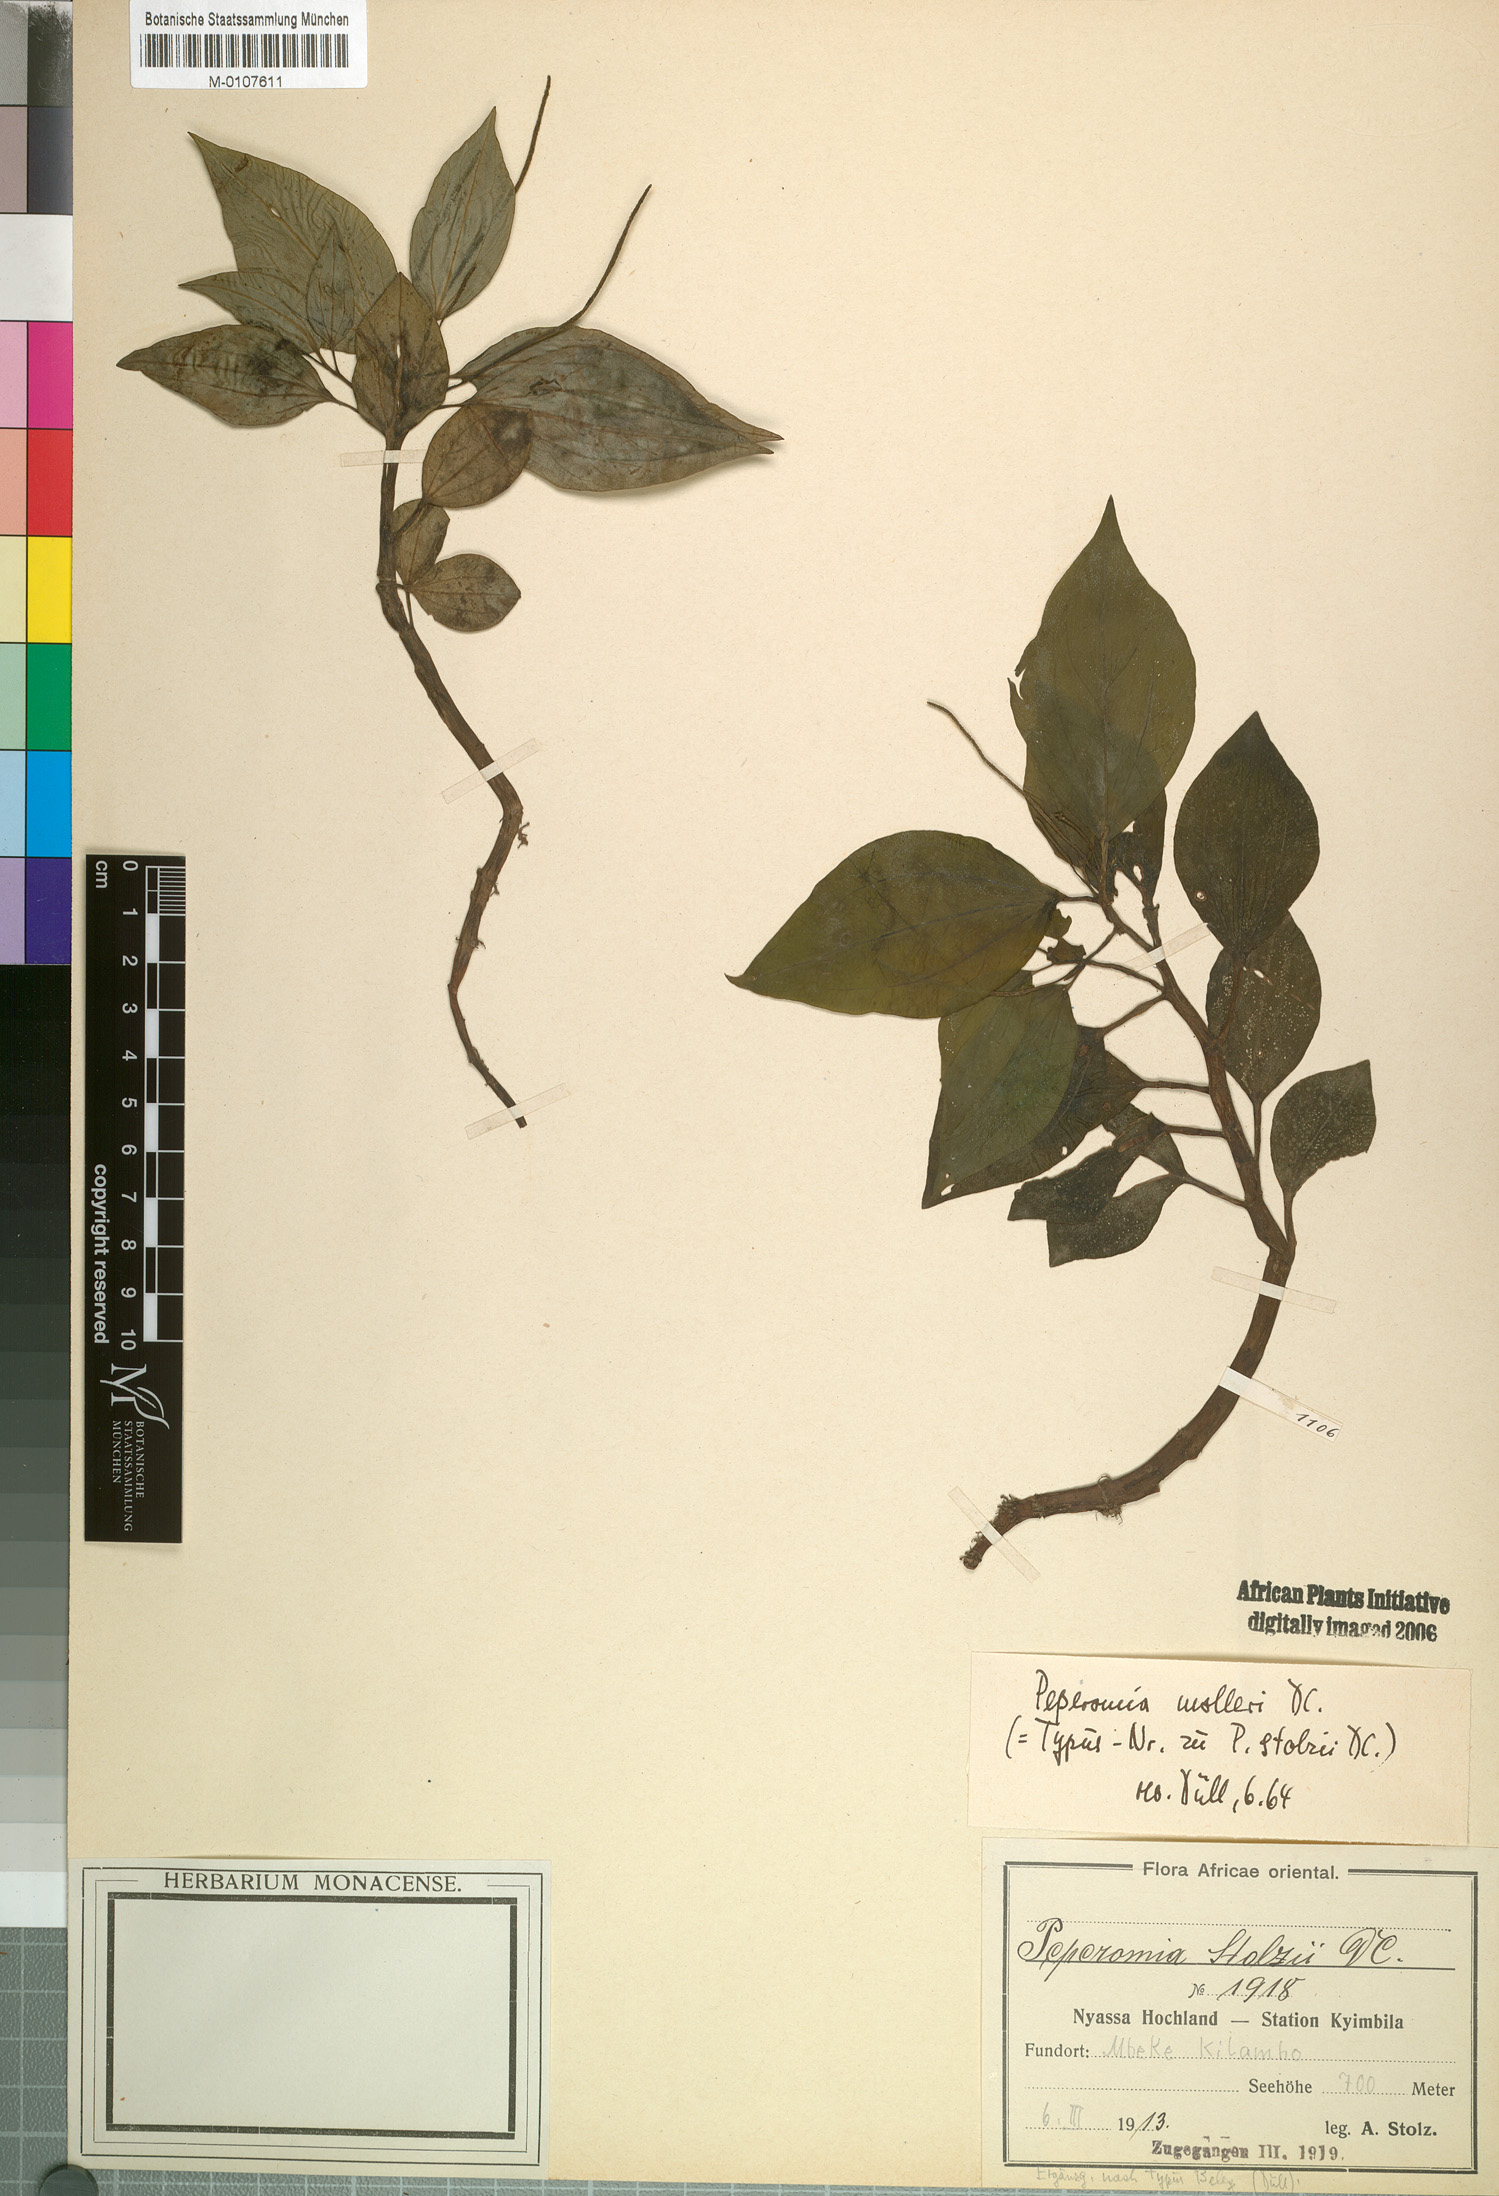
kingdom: Plantae
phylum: Tracheophyta
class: Magnoliopsida
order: Piperales
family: Piperaceae
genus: Peperomia
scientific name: Peperomia molleri
